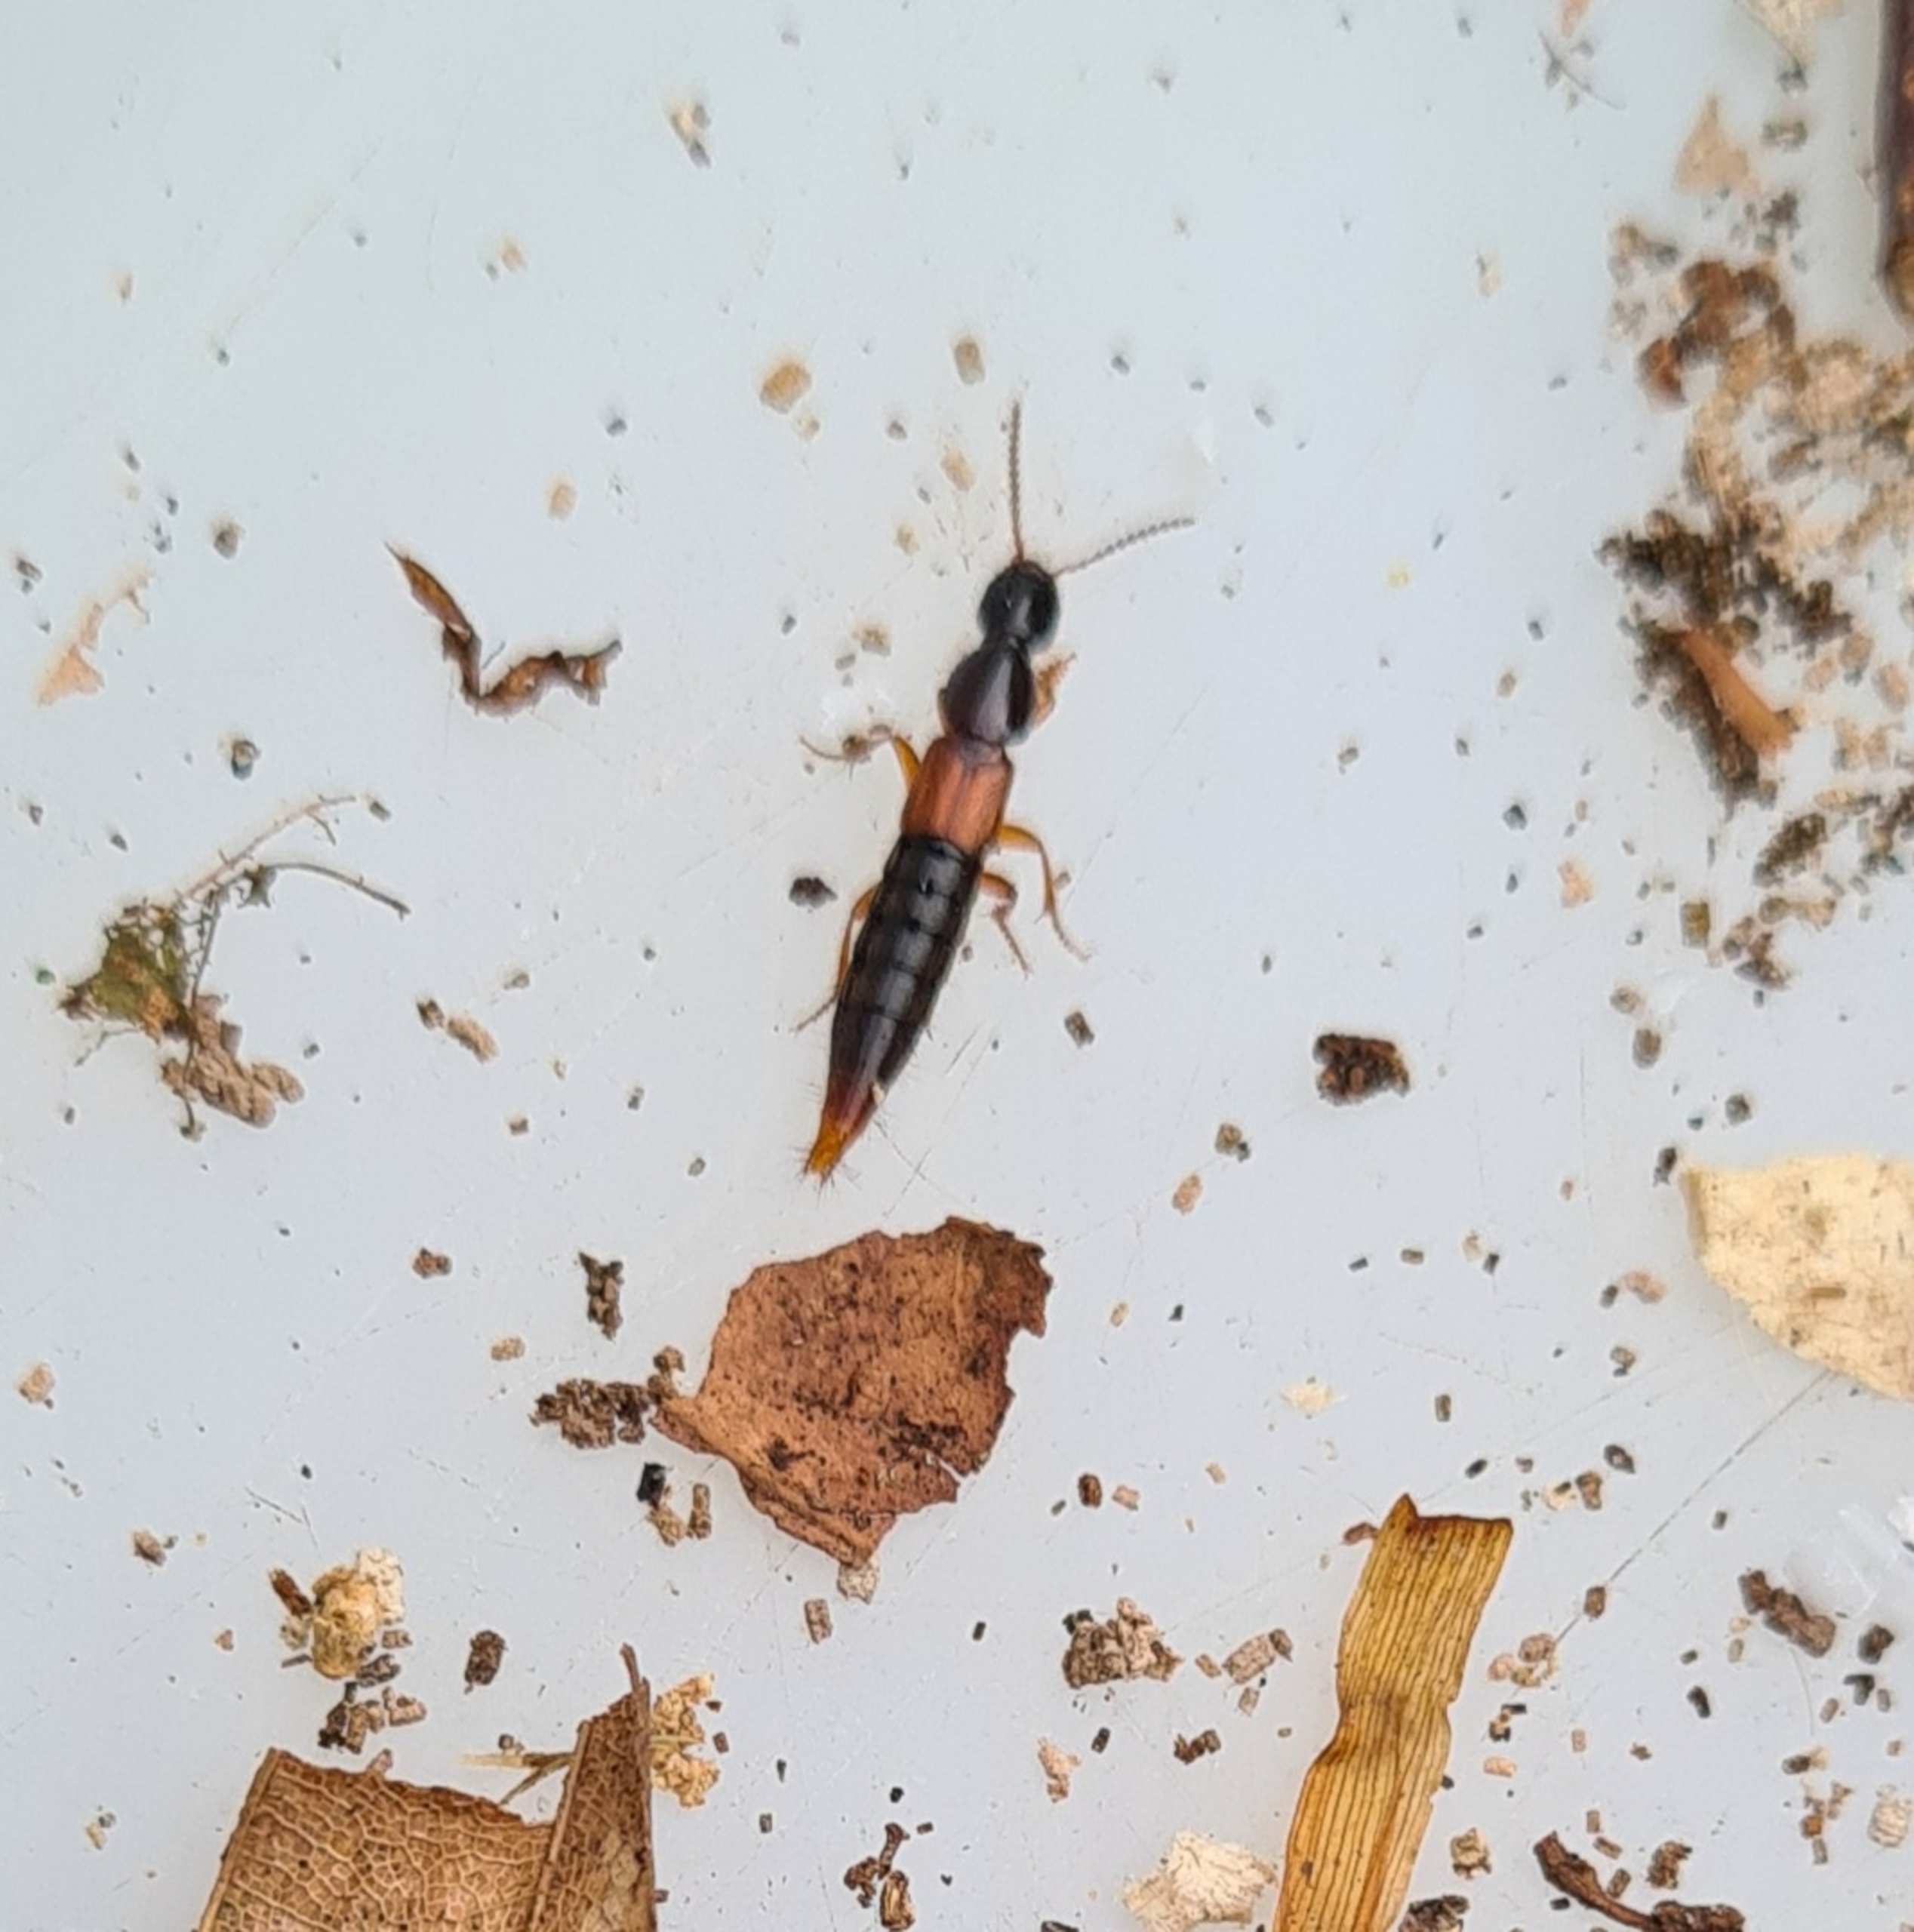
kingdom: Animalia
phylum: Arthropoda
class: Insecta
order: Coleoptera
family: Staphylinidae
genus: Othius
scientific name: Othius punctulatus
